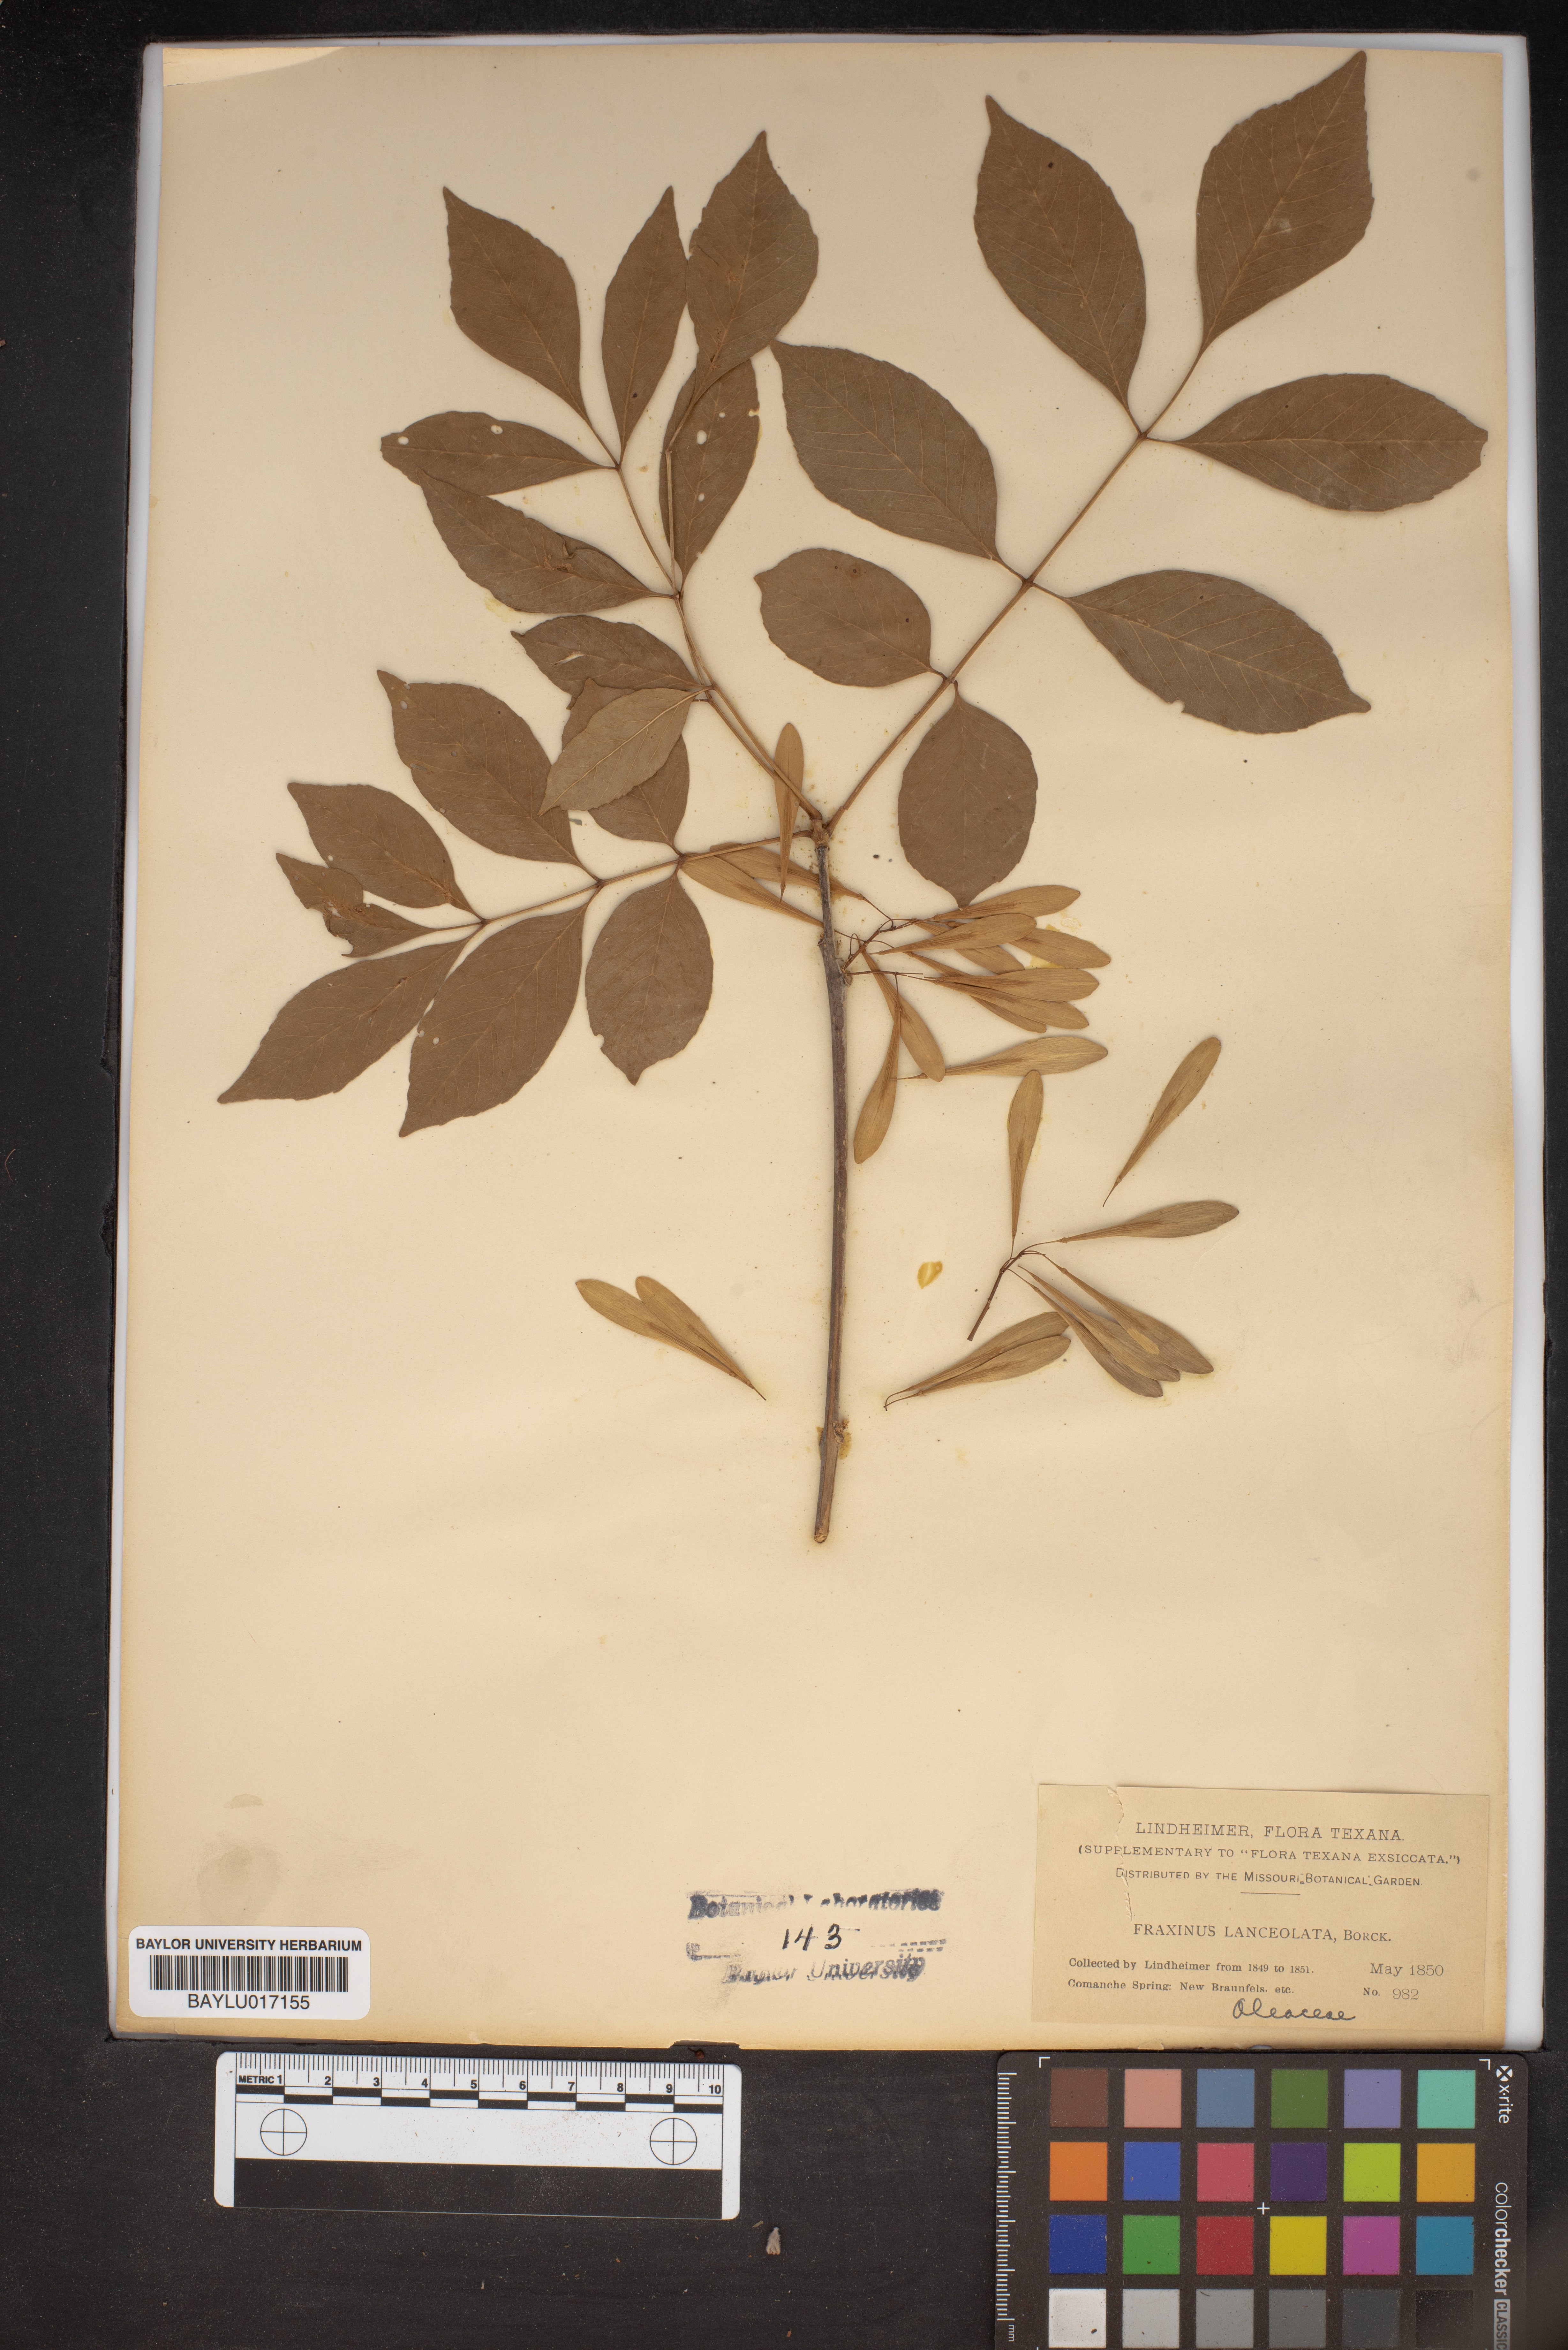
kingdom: Plantae
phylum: Tracheophyta
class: Magnoliopsida
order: Lamiales
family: Oleaceae
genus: Fraxinus
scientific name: Fraxinus pennsylvanica
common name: Green ash
